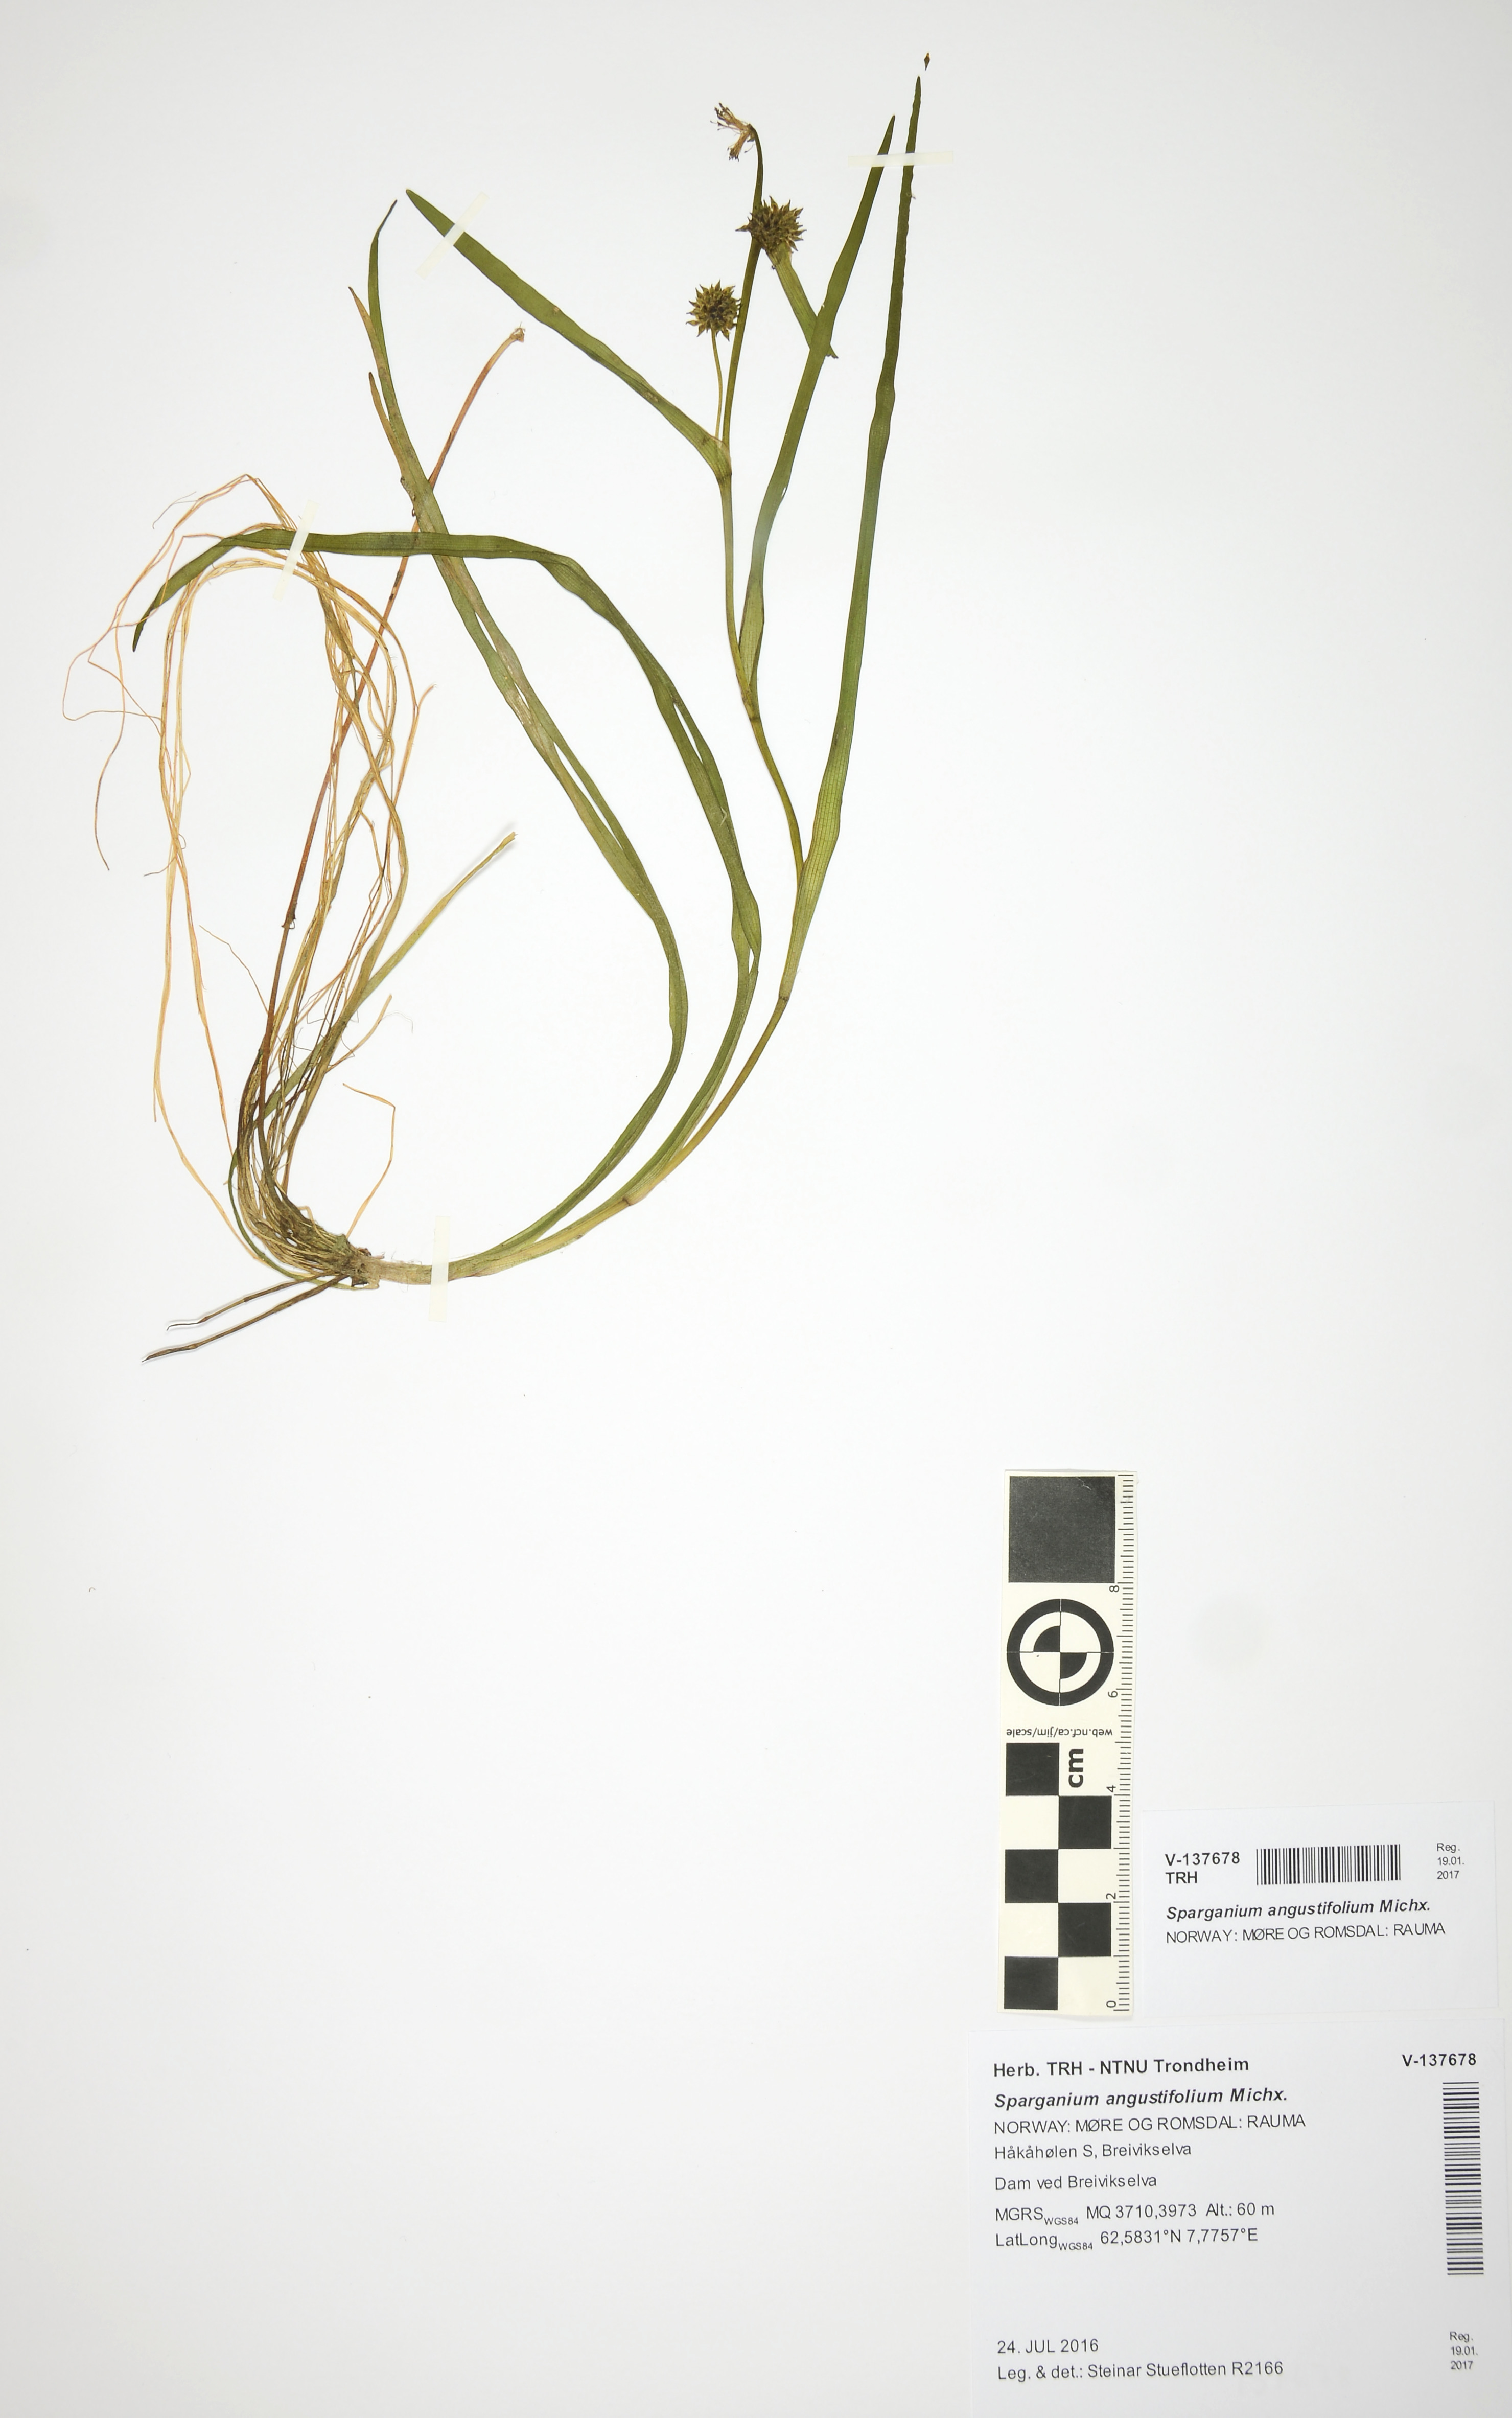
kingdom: Plantae
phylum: Tracheophyta
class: Liliopsida
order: Poales
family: Typhaceae
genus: Sparganium
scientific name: Sparganium angustifolium
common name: Floating bur-reed
